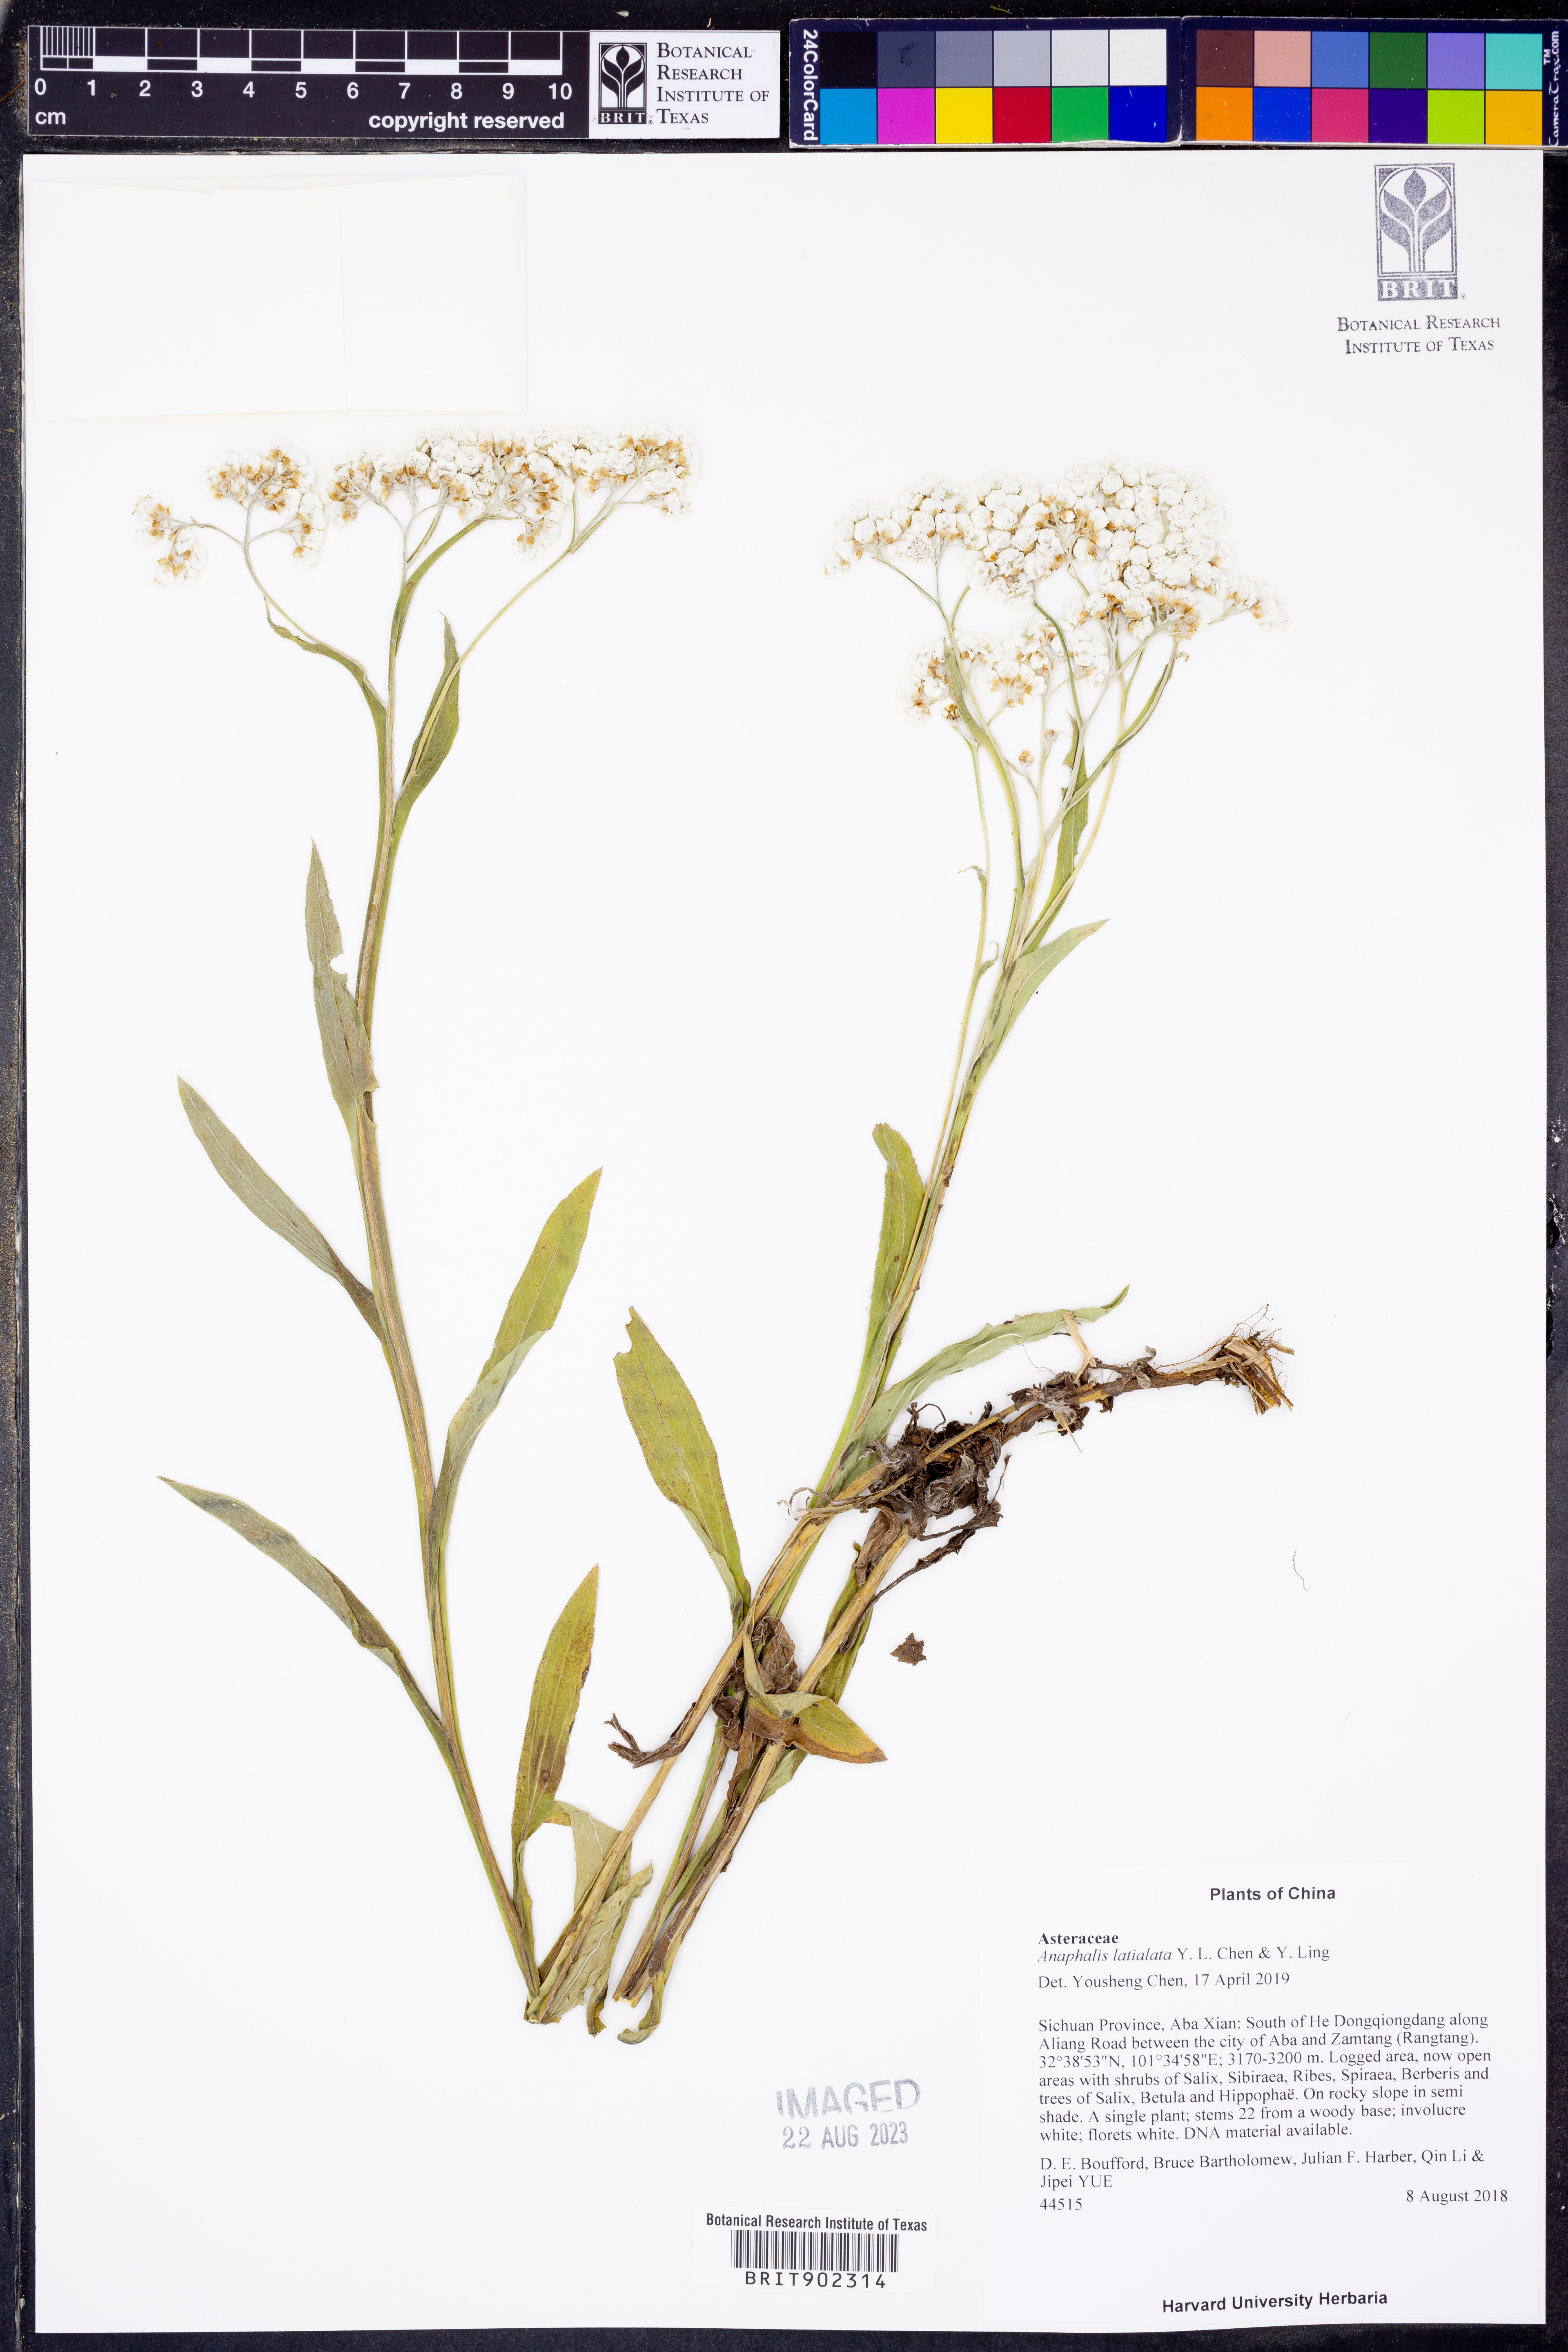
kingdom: Plantae
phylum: Tracheophyta
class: Magnoliopsida
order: Asterales
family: Asteraceae
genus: Anaphalis
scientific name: Anaphalis latialata
